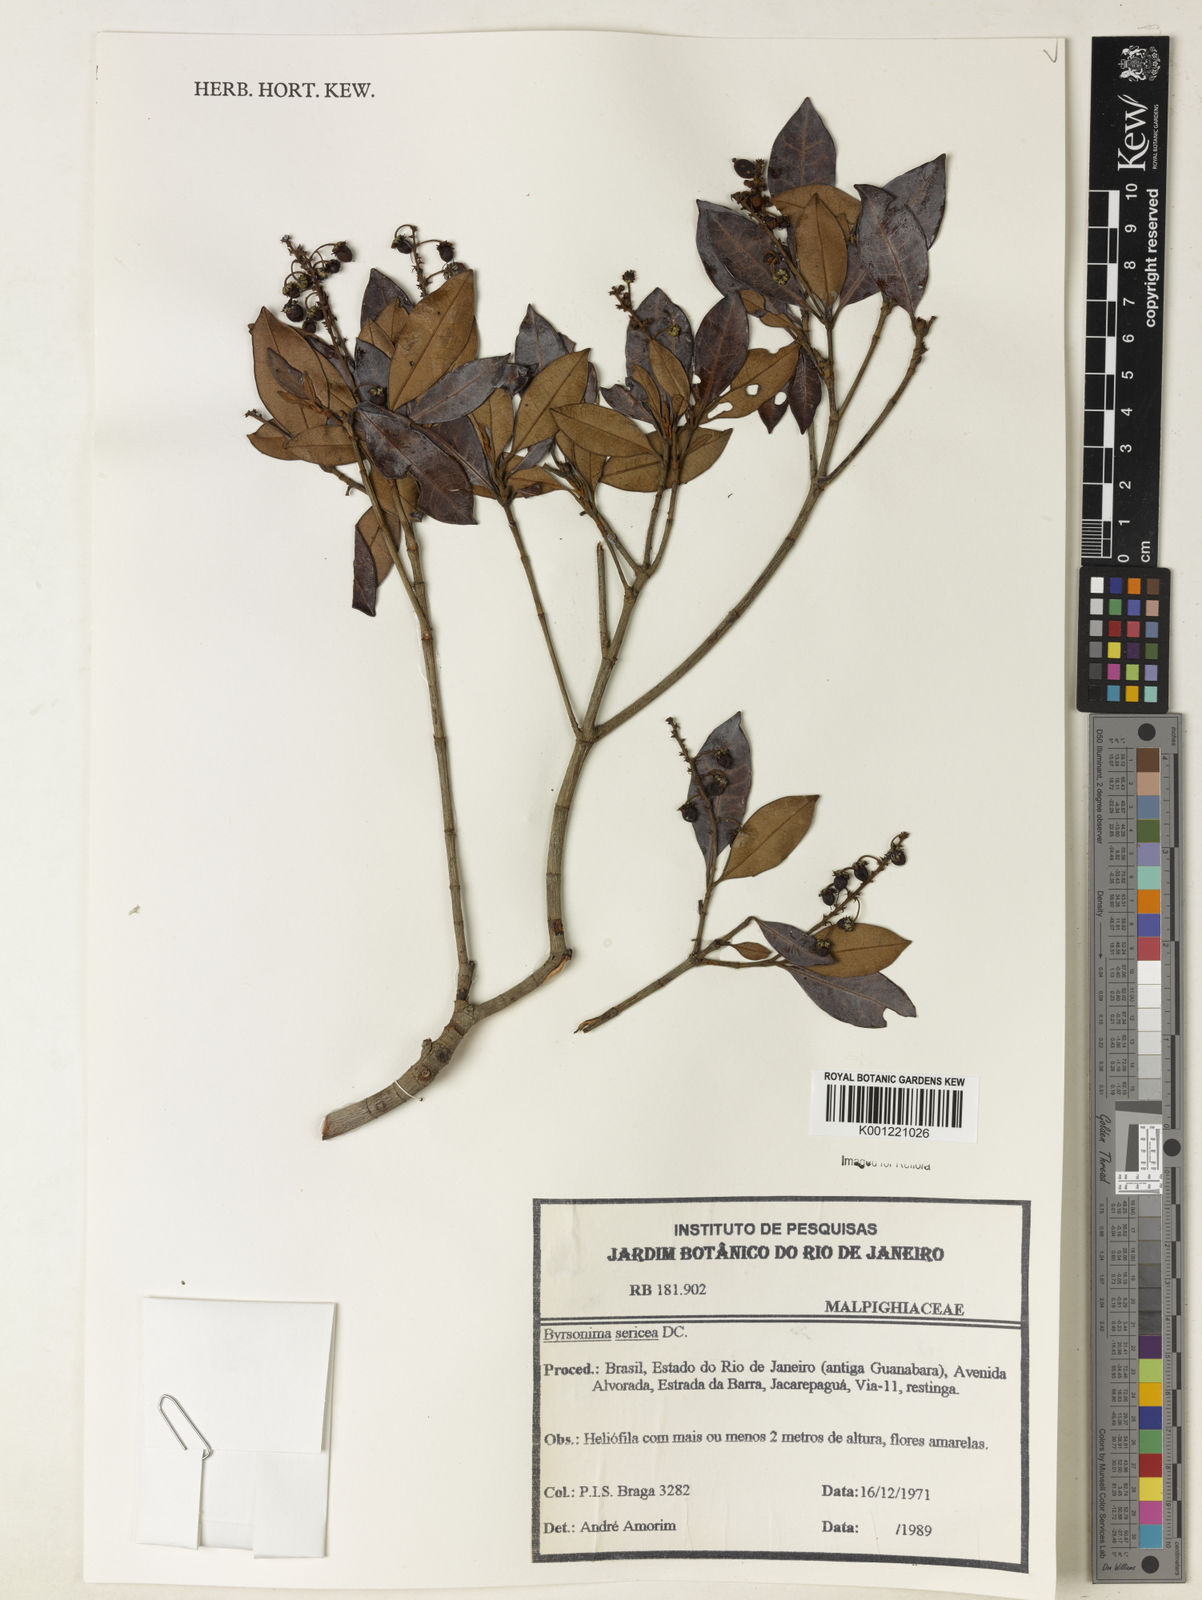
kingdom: Plantae
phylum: Tracheophyta
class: Magnoliopsida
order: Malpighiales
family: Malpighiaceae
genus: Byrsonima
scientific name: Byrsonima sericea
